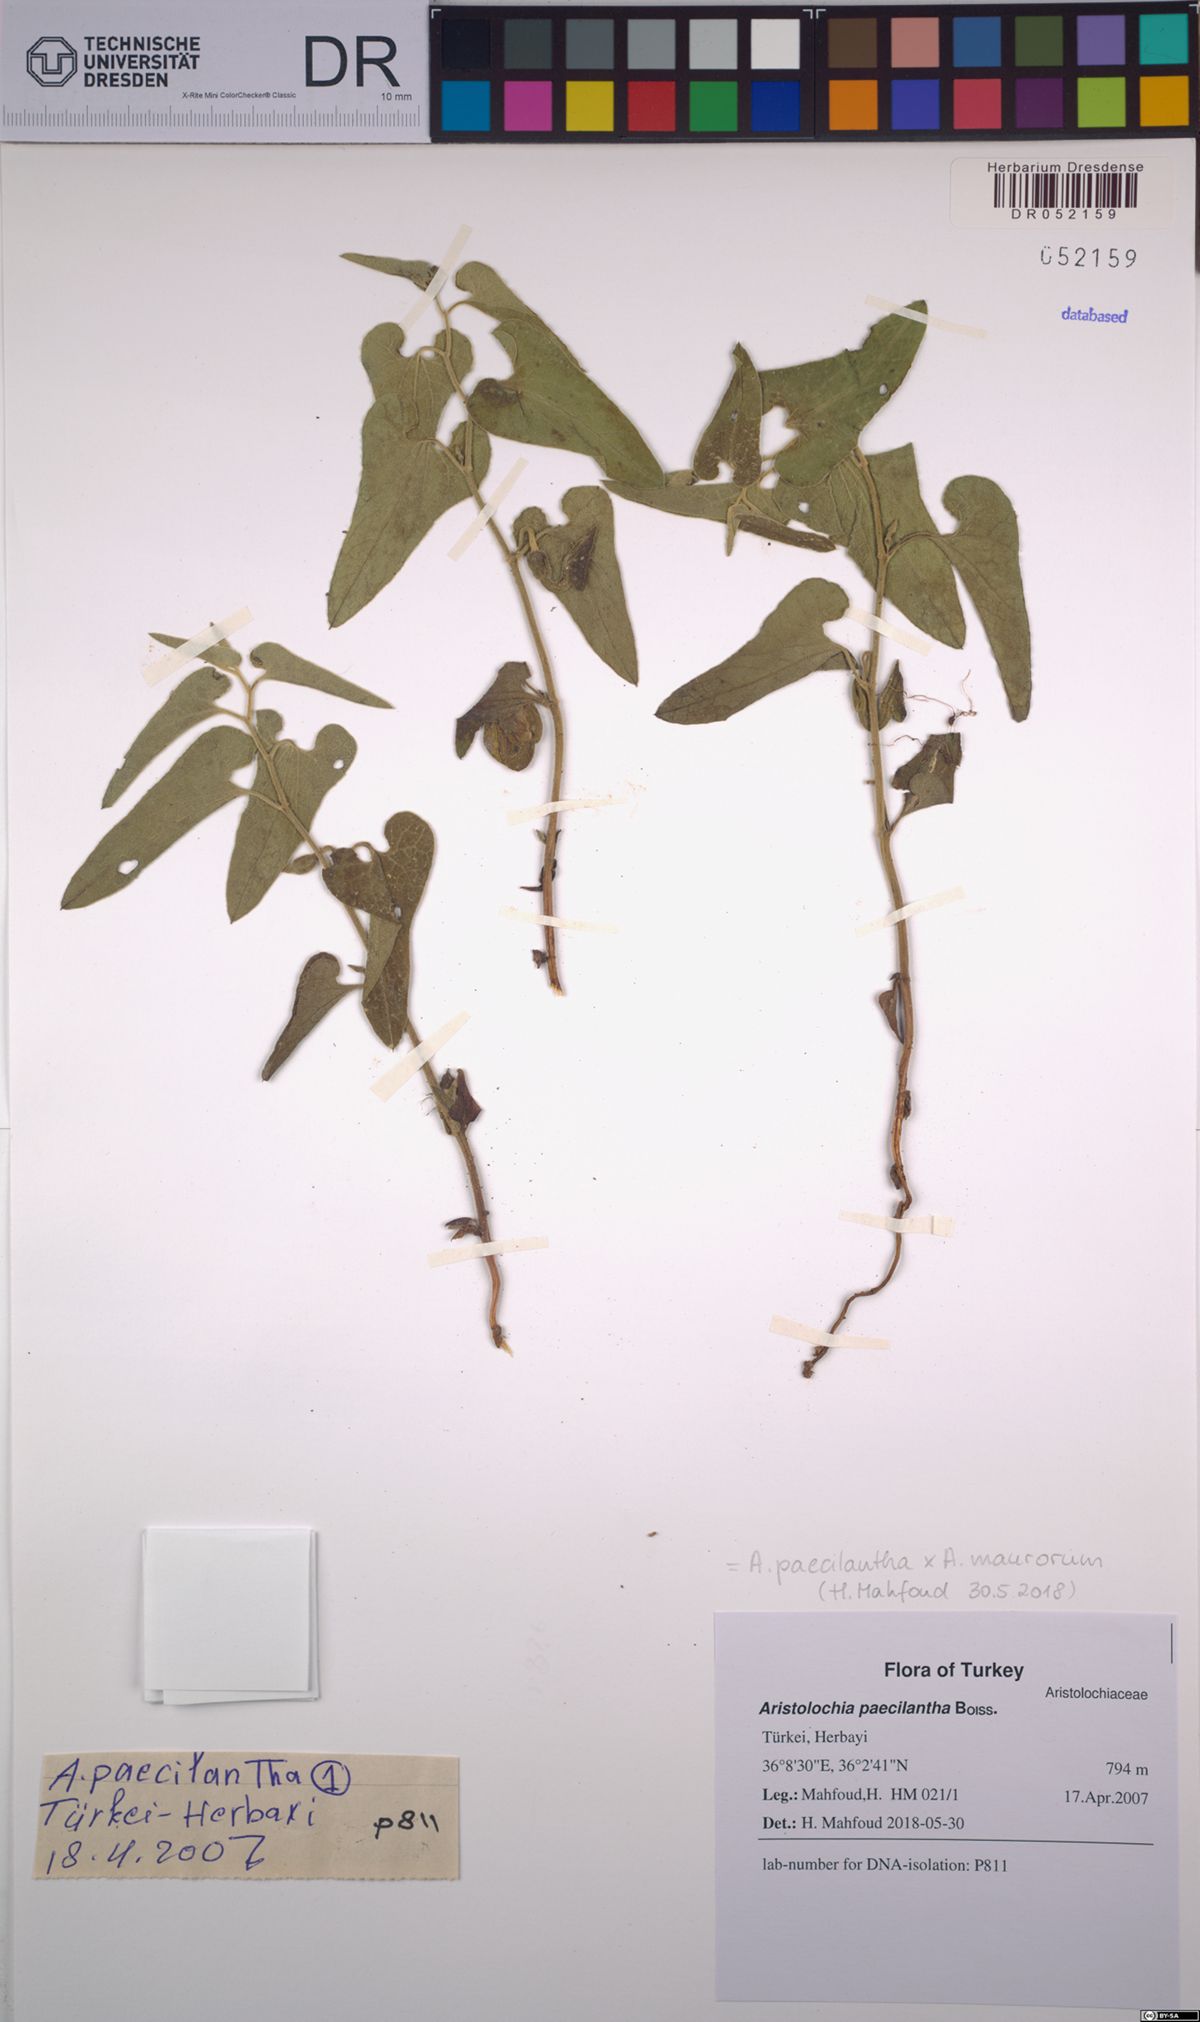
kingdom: Plantae
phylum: Tracheophyta
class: Magnoliopsida
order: Piperales
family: Aristolochiaceae
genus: Aristolochia
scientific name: Aristolochia paecilantha
